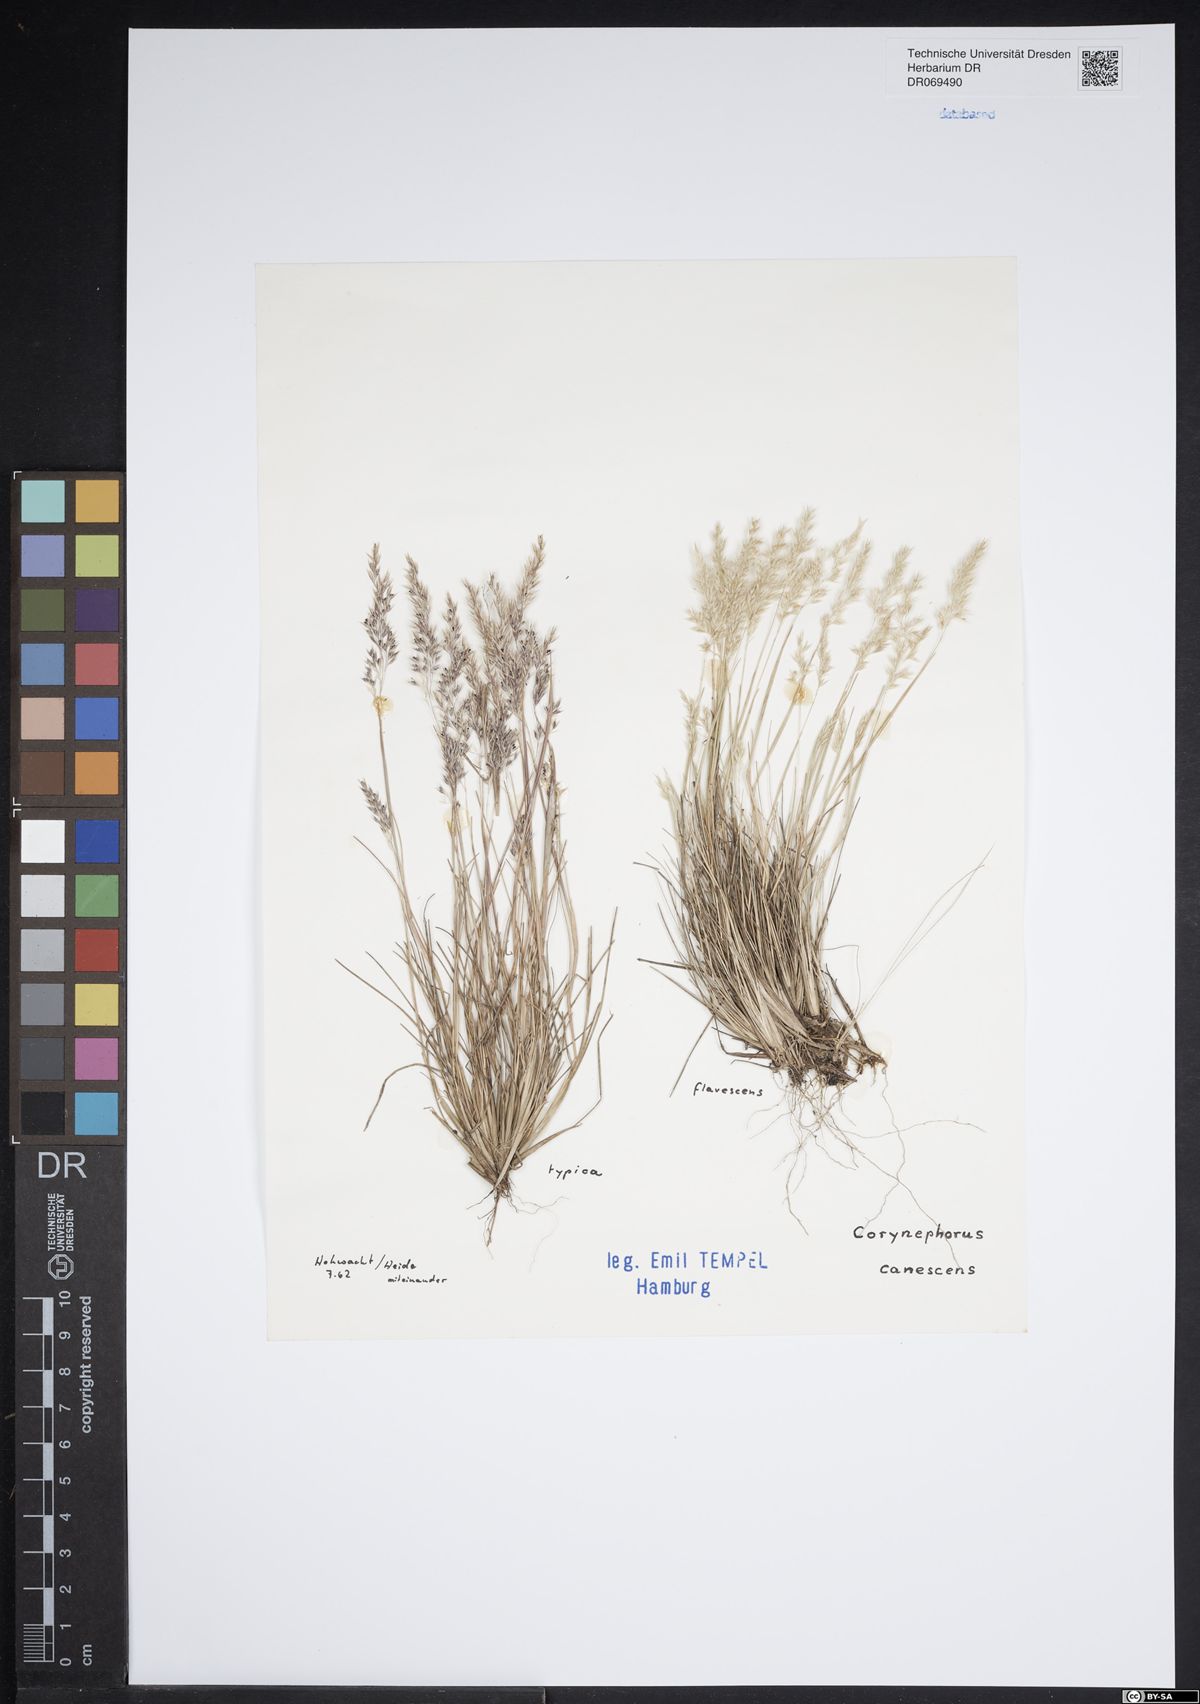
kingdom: Plantae
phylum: Tracheophyta
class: Liliopsida
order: Poales
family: Poaceae
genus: Corynephorus
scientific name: Corynephorus canescens
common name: Grey hair-grass
